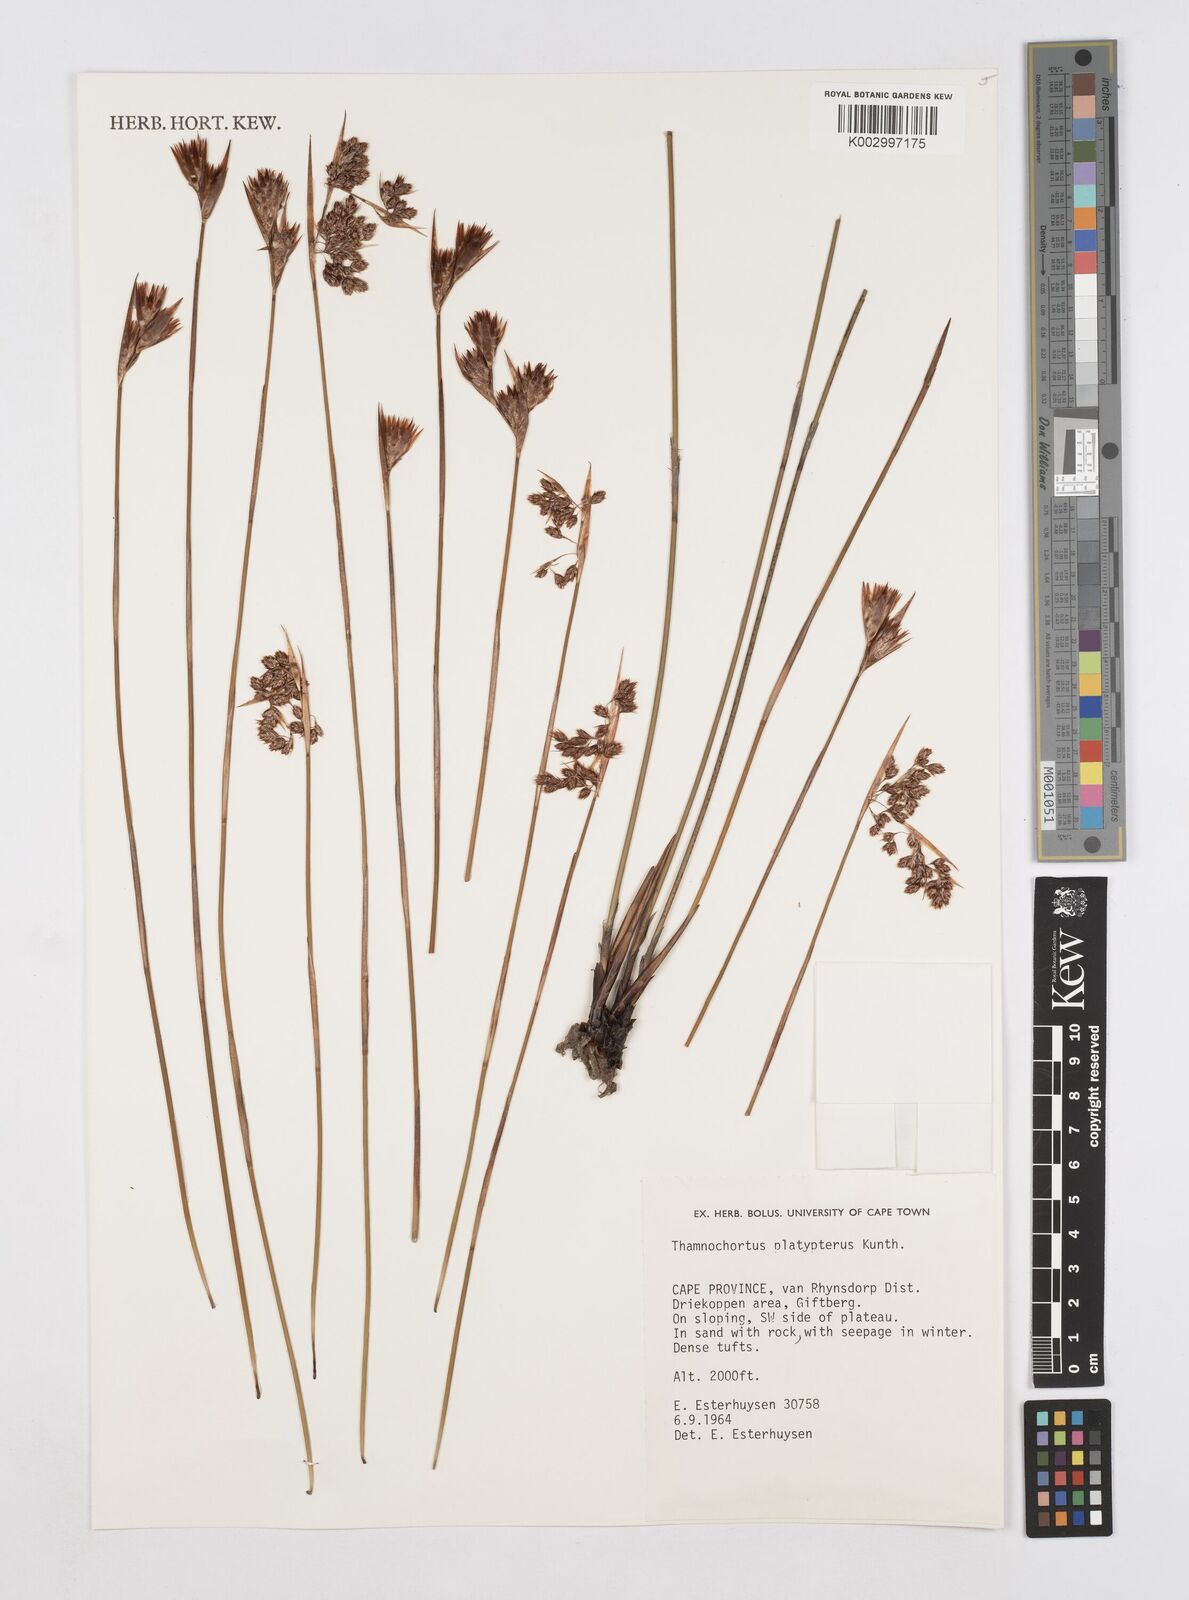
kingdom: Plantae
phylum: Tracheophyta
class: Liliopsida
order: Poales
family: Restionaceae
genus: Thamnochortus
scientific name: Thamnochortus platypteris
